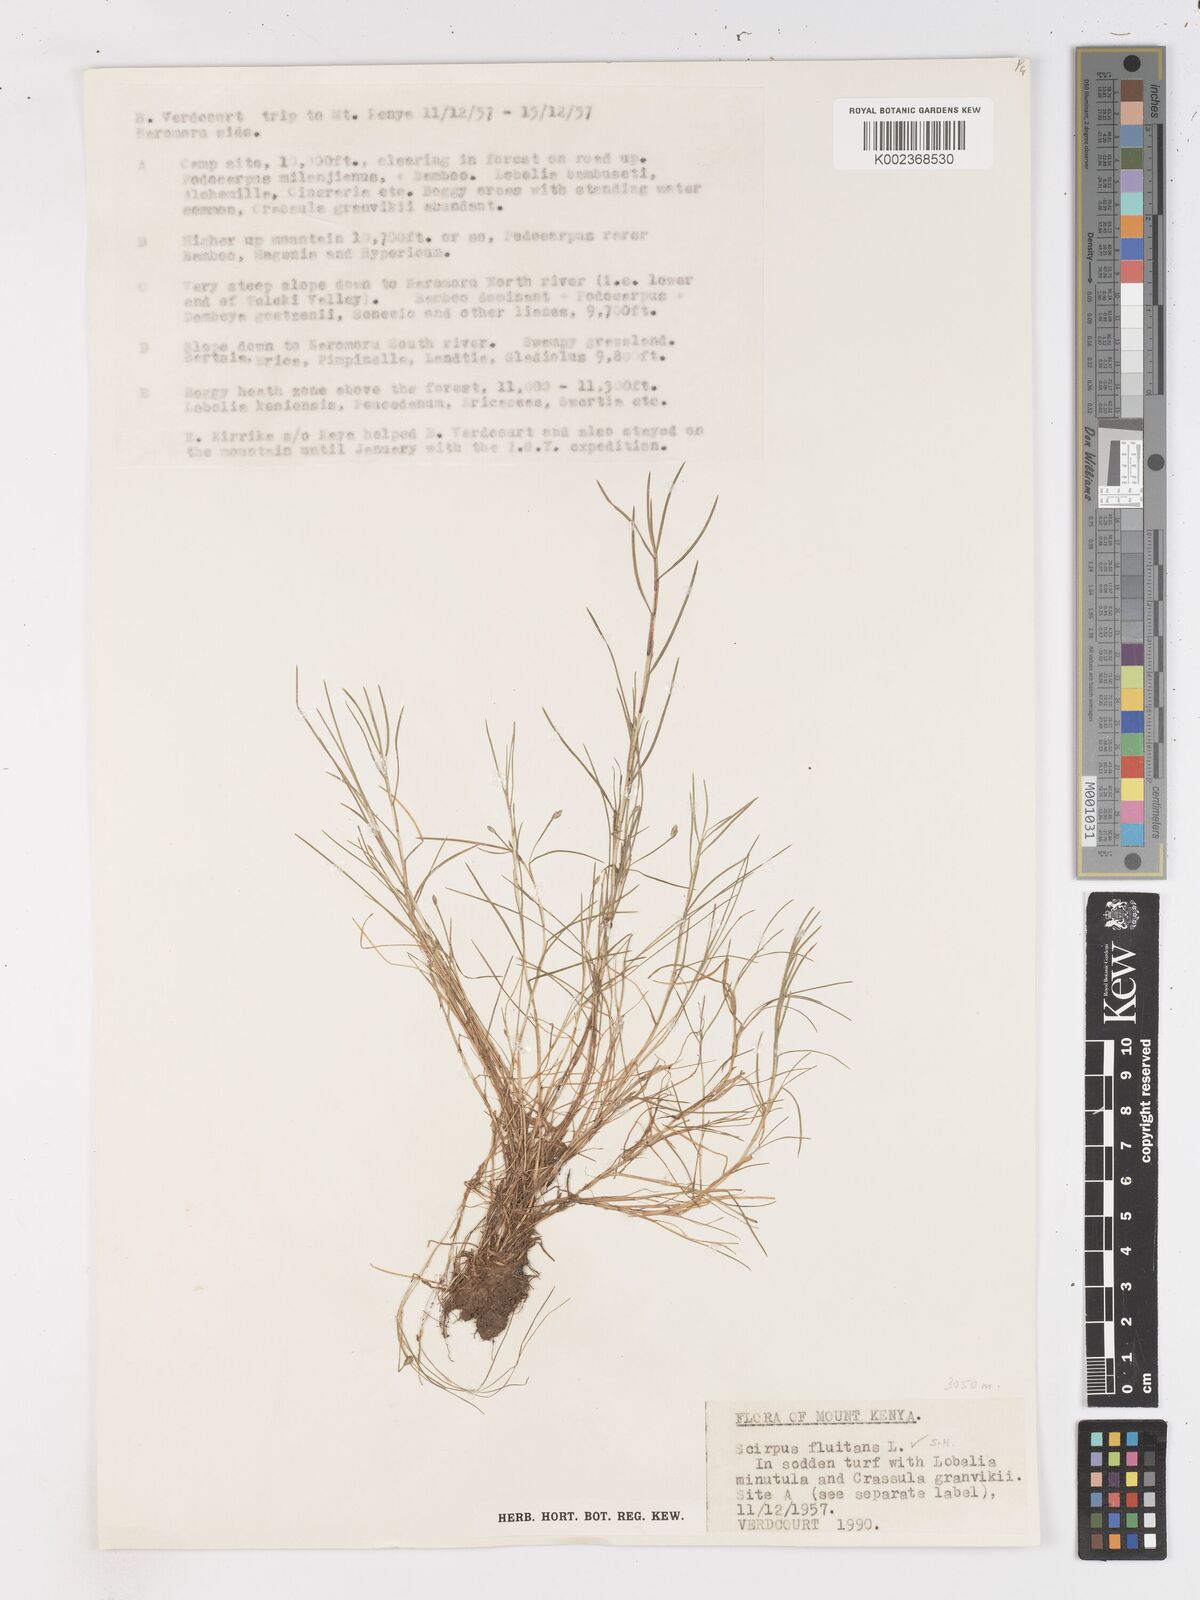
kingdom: Plantae
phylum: Tracheophyta
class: Liliopsida
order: Poales
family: Cyperaceae
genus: Isolepis
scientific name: Isolepis fluitans
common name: Floating club-rush
